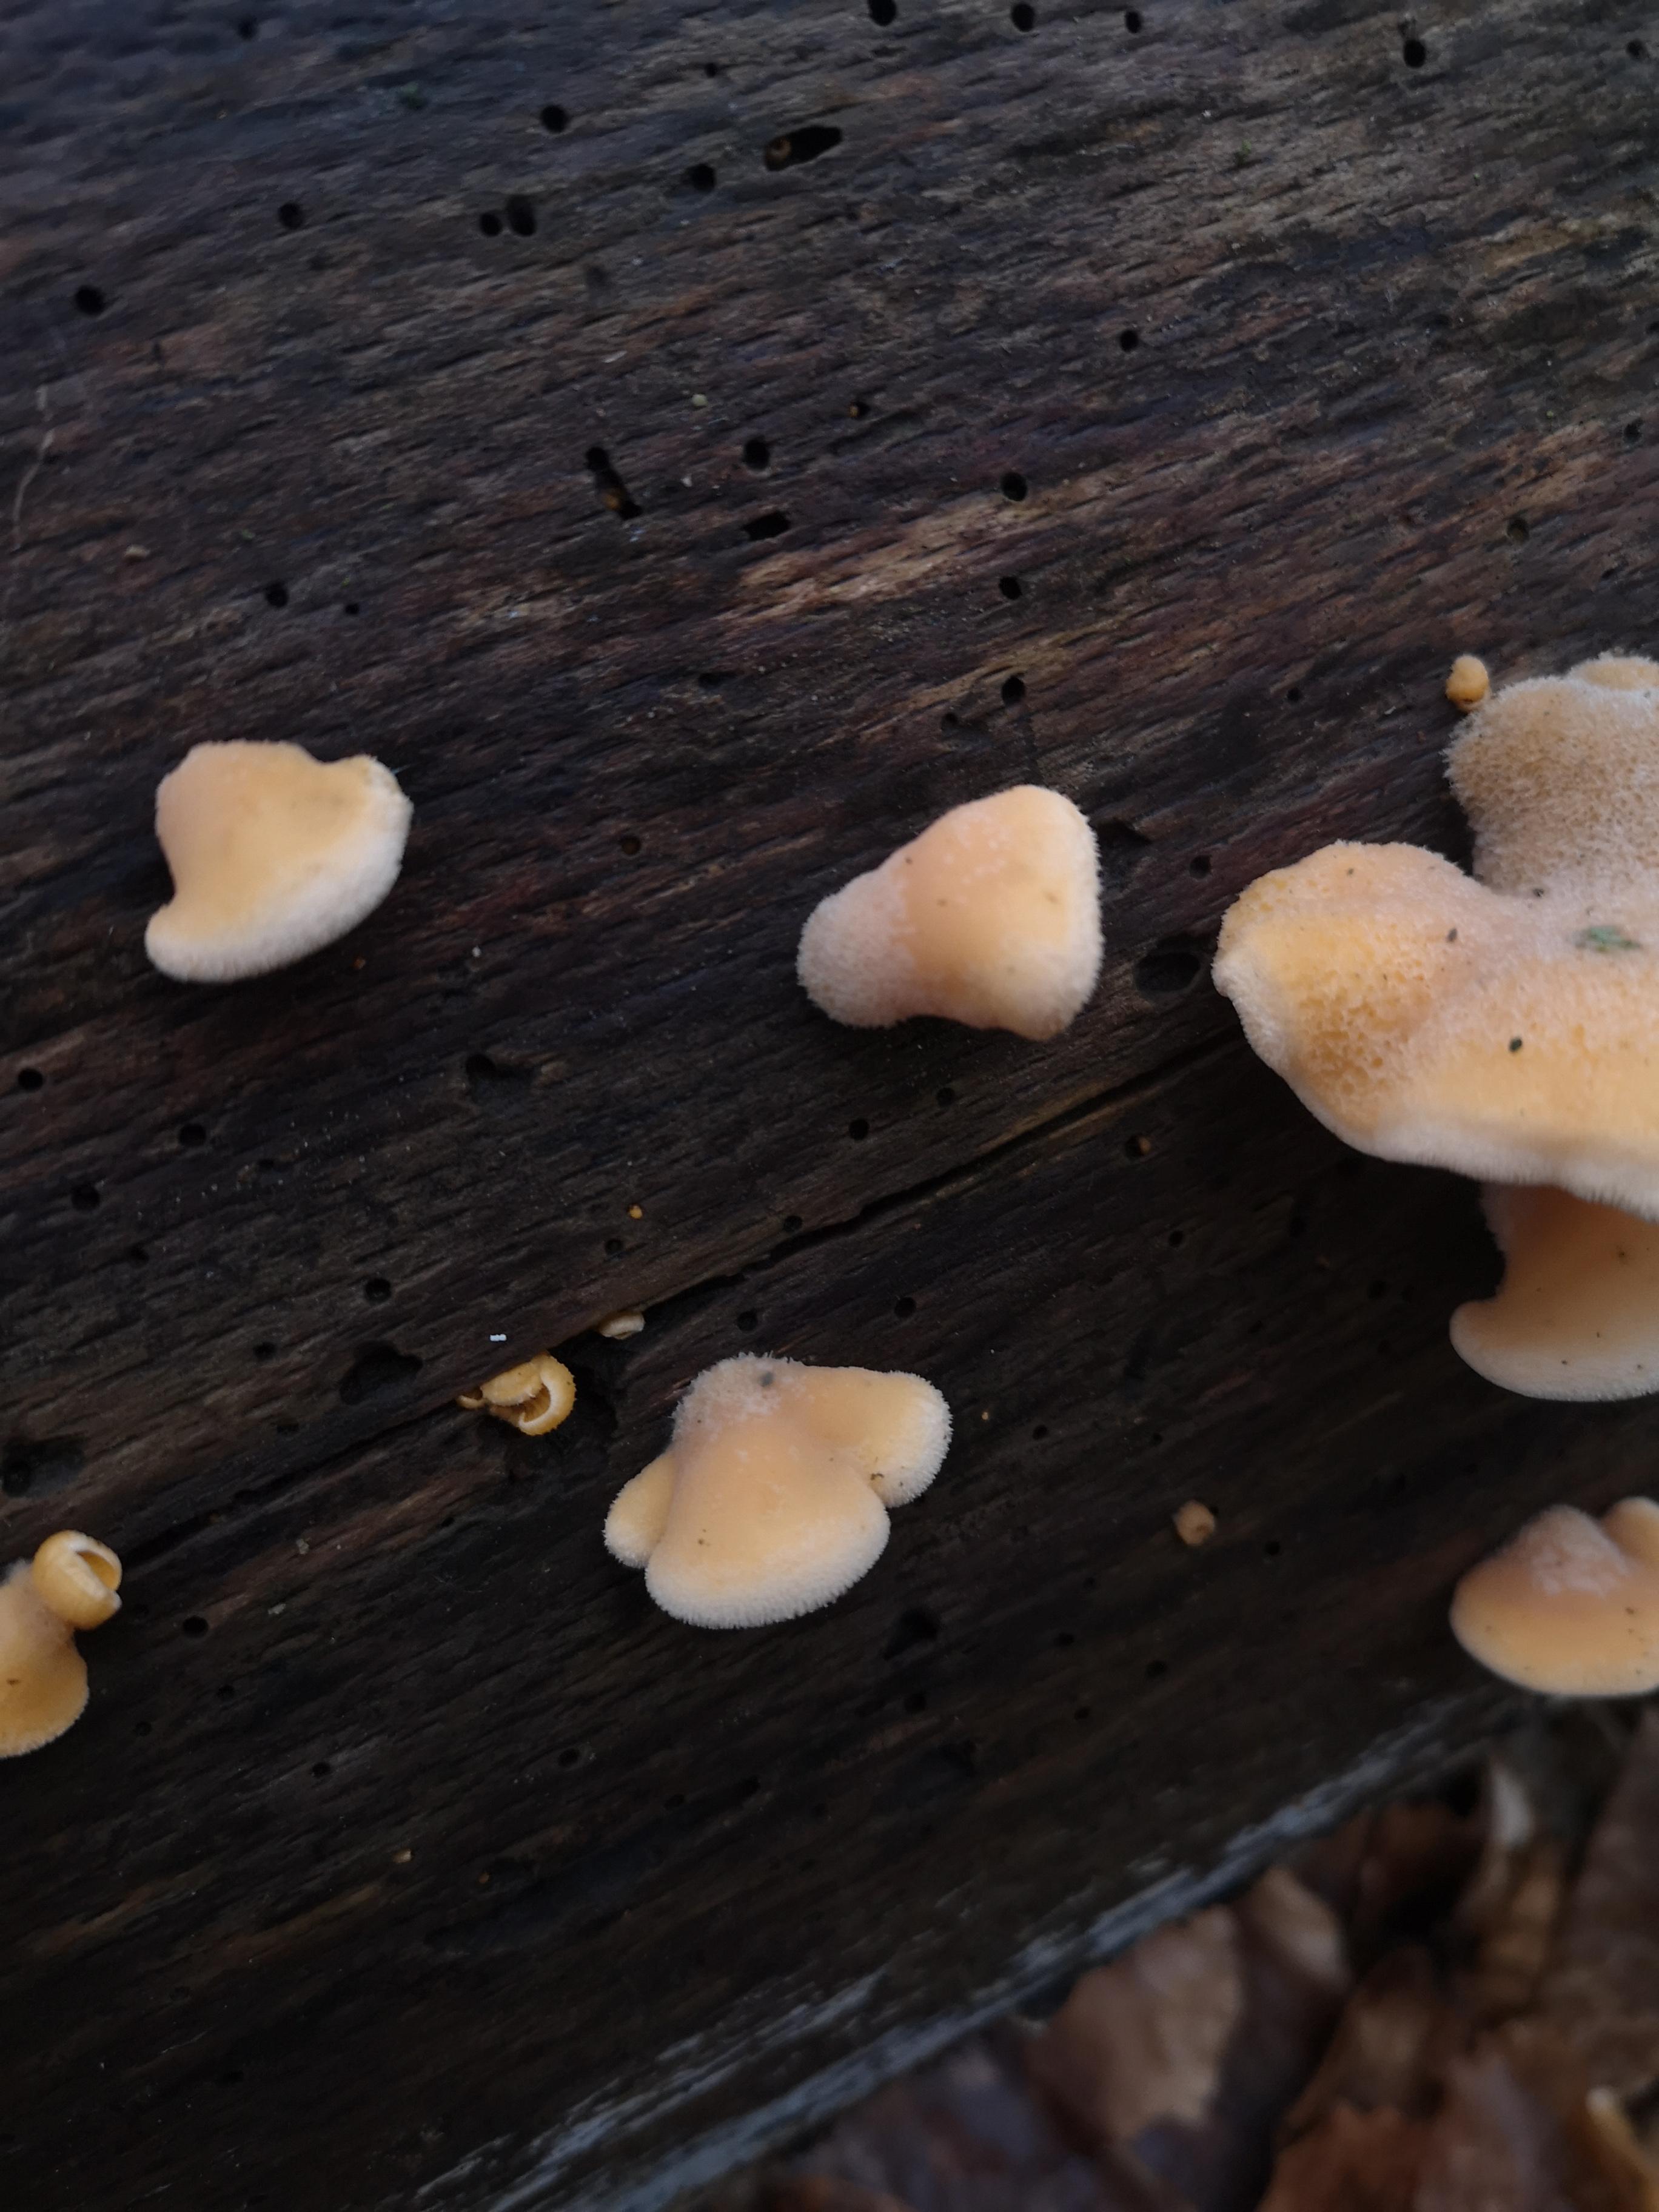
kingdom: Fungi
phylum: Basidiomycota
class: Agaricomycetes
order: Agaricales
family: Phyllotopsidaceae
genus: Phyllotopsis
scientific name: Phyllotopsis nidulans
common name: okkerblad
